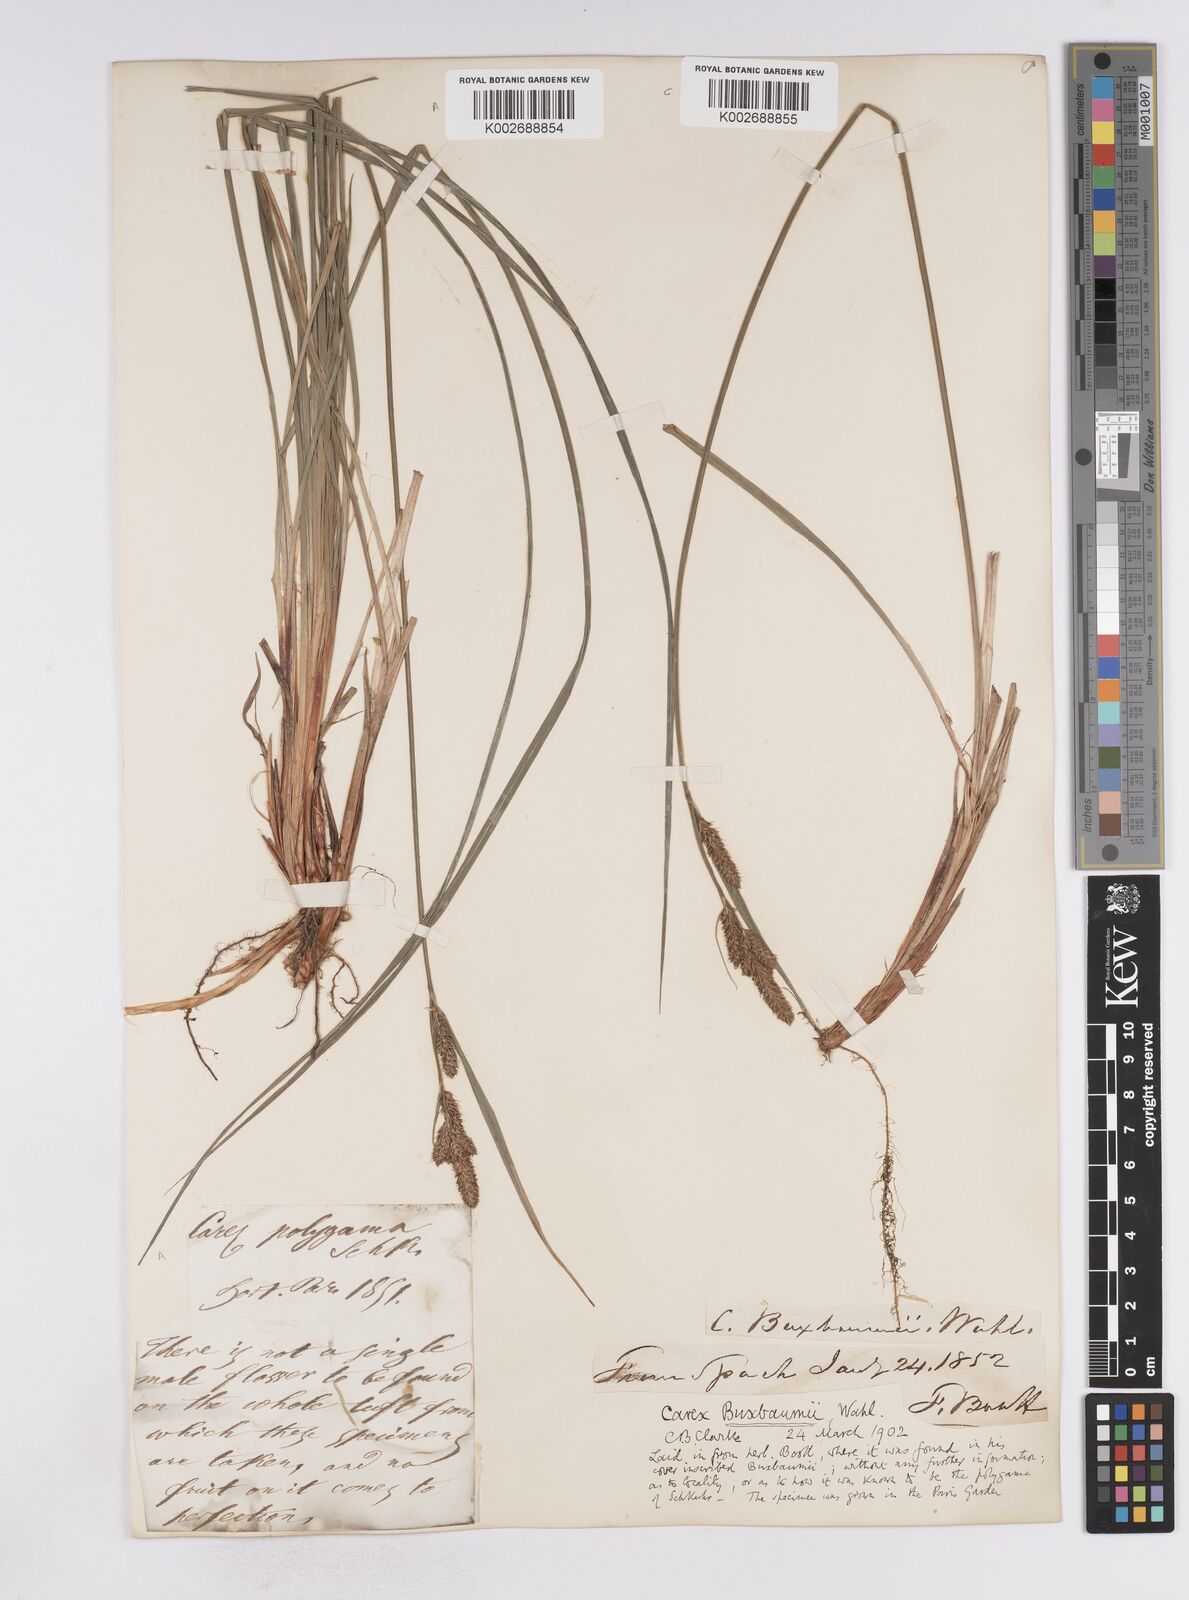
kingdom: Plantae
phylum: Tracheophyta
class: Liliopsida
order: Poales
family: Cyperaceae
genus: Carex
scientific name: Carex buxbaumii
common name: Club sedge
